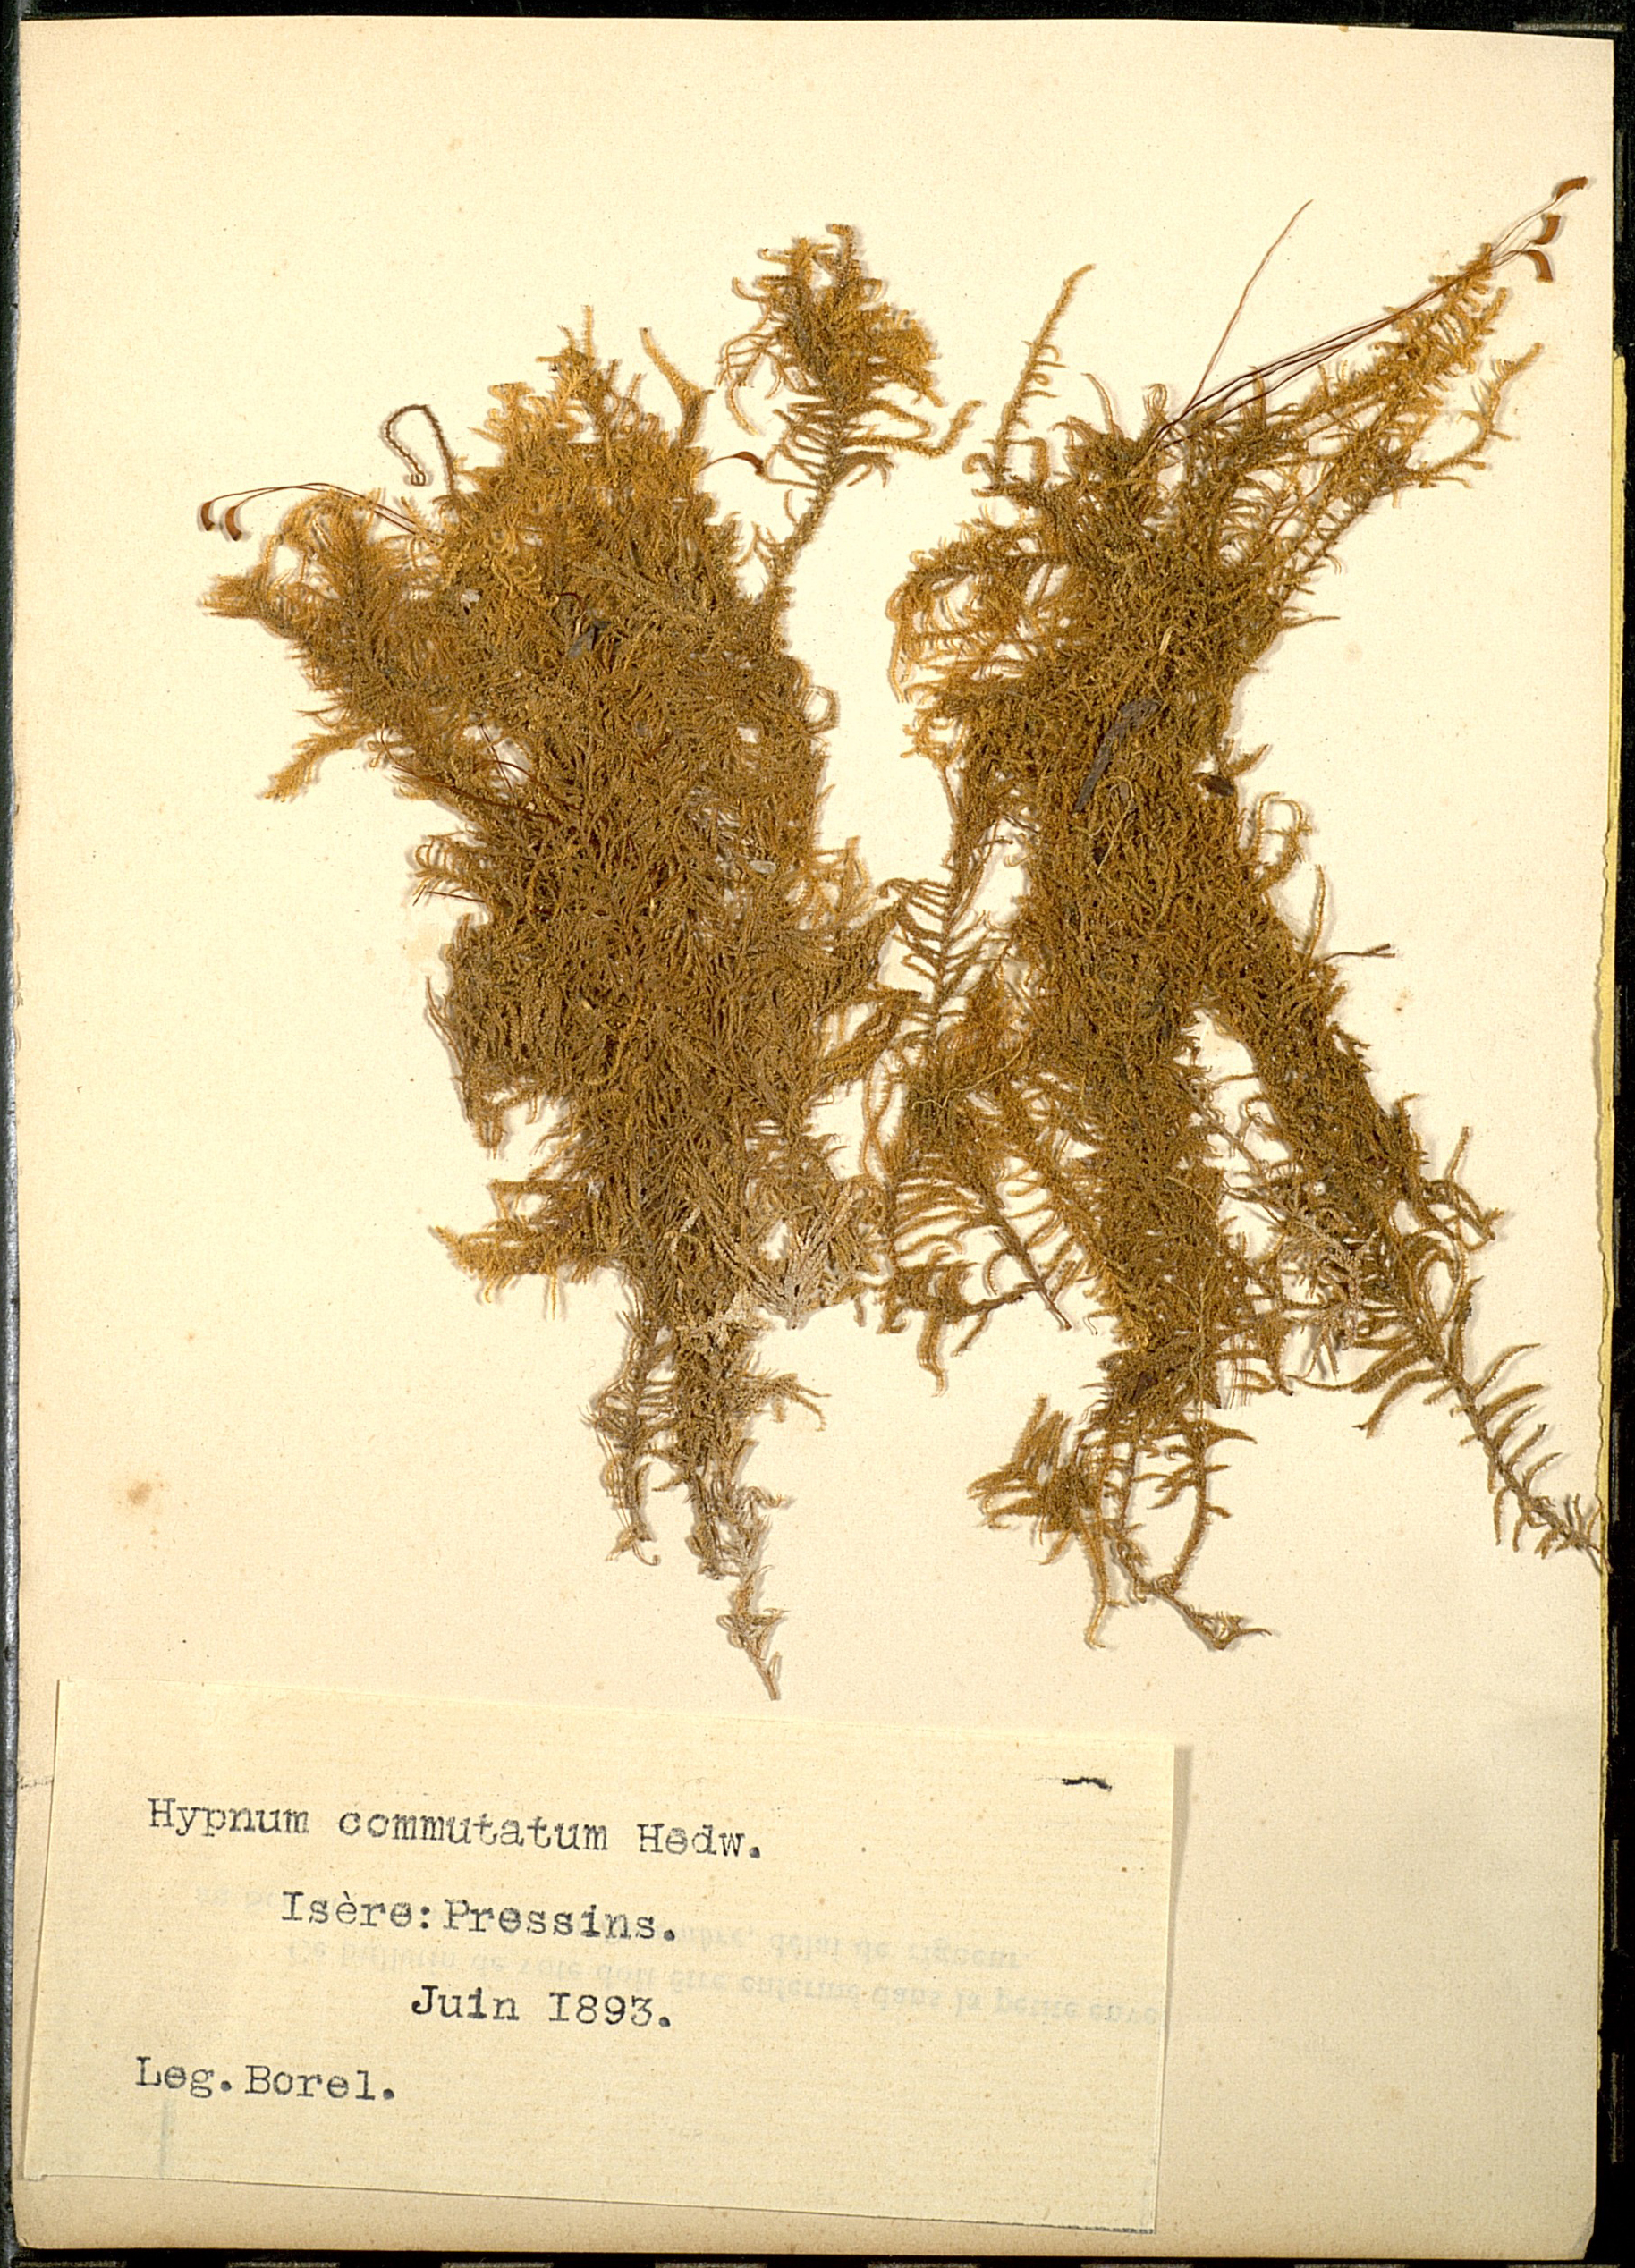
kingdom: Plantae
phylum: Bryophyta
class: Bryopsida
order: Hypnales
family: Amblystegiaceae
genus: Palustriella
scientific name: Palustriella commutata
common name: Curled hook-moss
